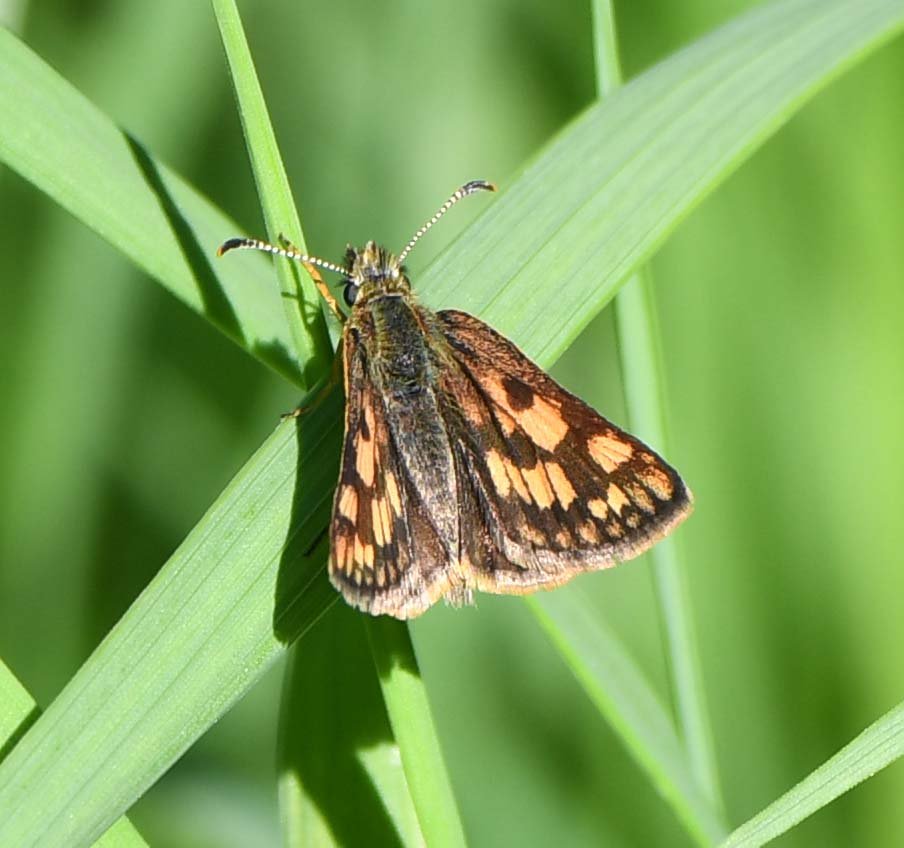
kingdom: Animalia
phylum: Arthropoda
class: Insecta
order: Lepidoptera
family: Hesperiidae
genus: Carterocephalus
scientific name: Carterocephalus palaemon
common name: Chequered Skipper
